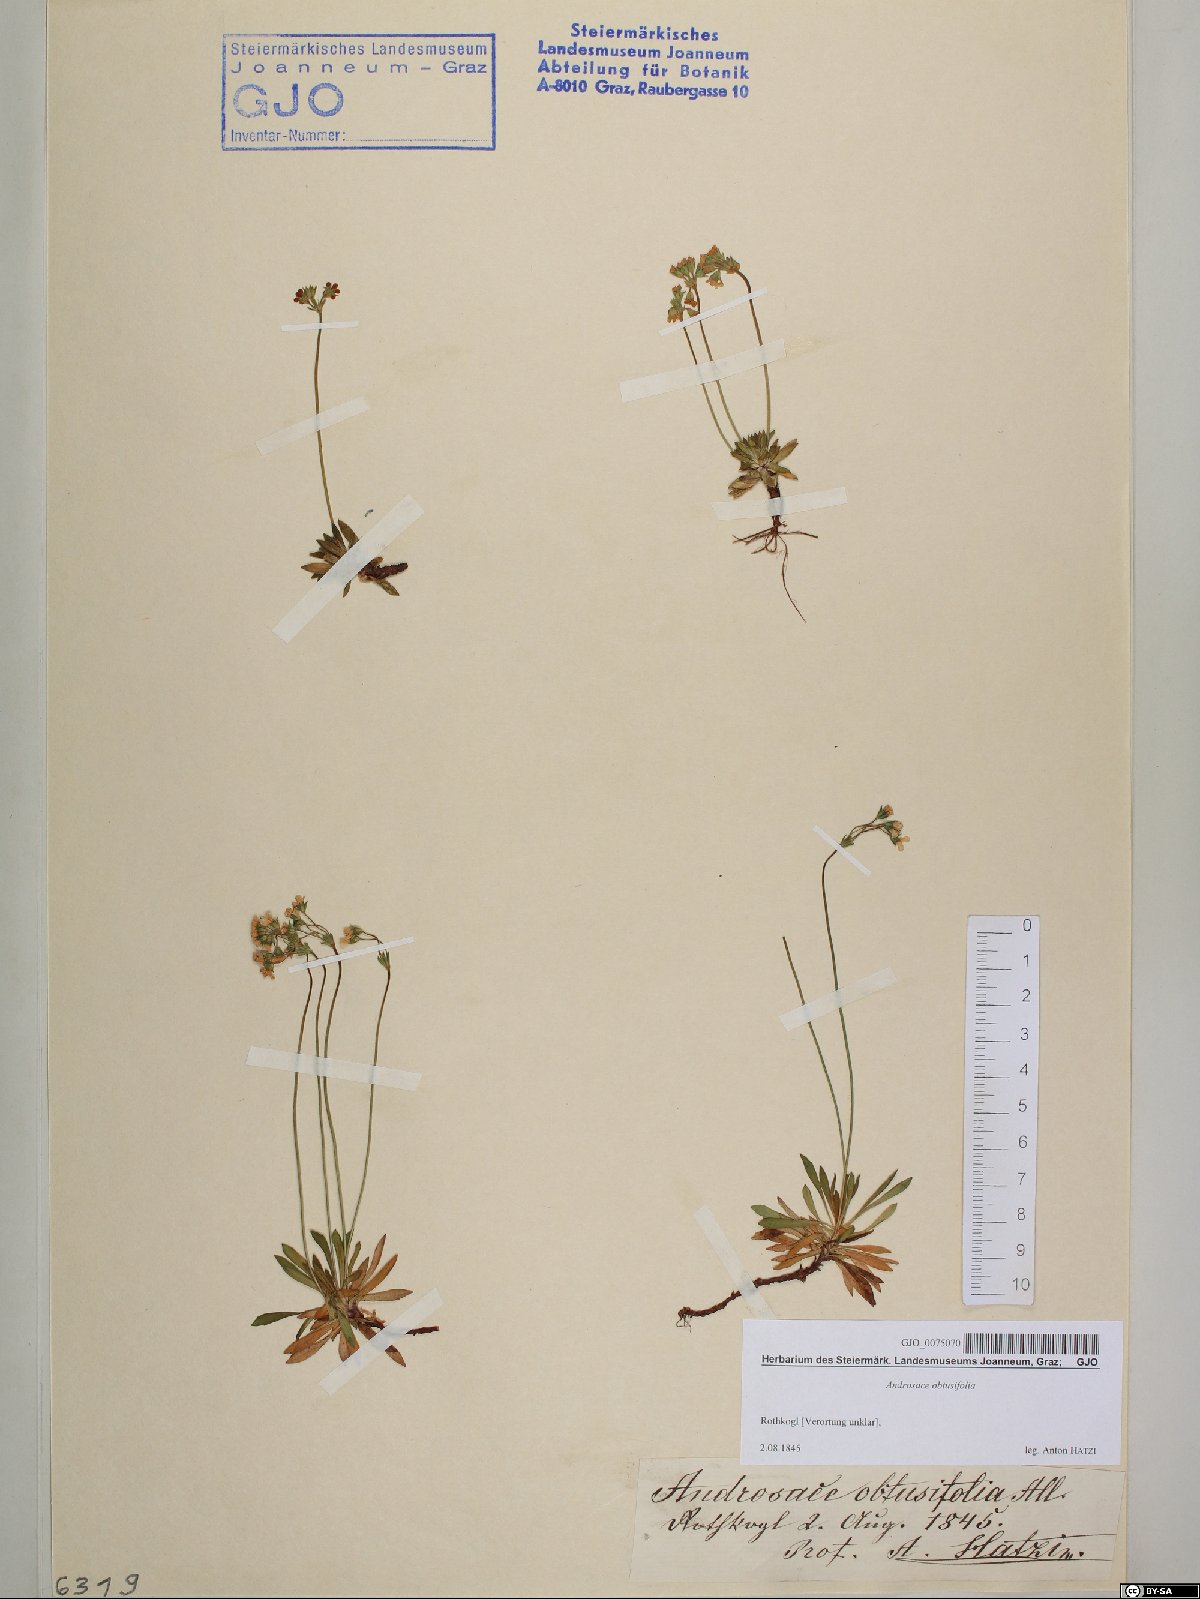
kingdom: Plantae
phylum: Tracheophyta
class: Magnoliopsida
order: Ericales
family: Primulaceae
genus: Androsace
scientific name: Androsace obtusifolia
